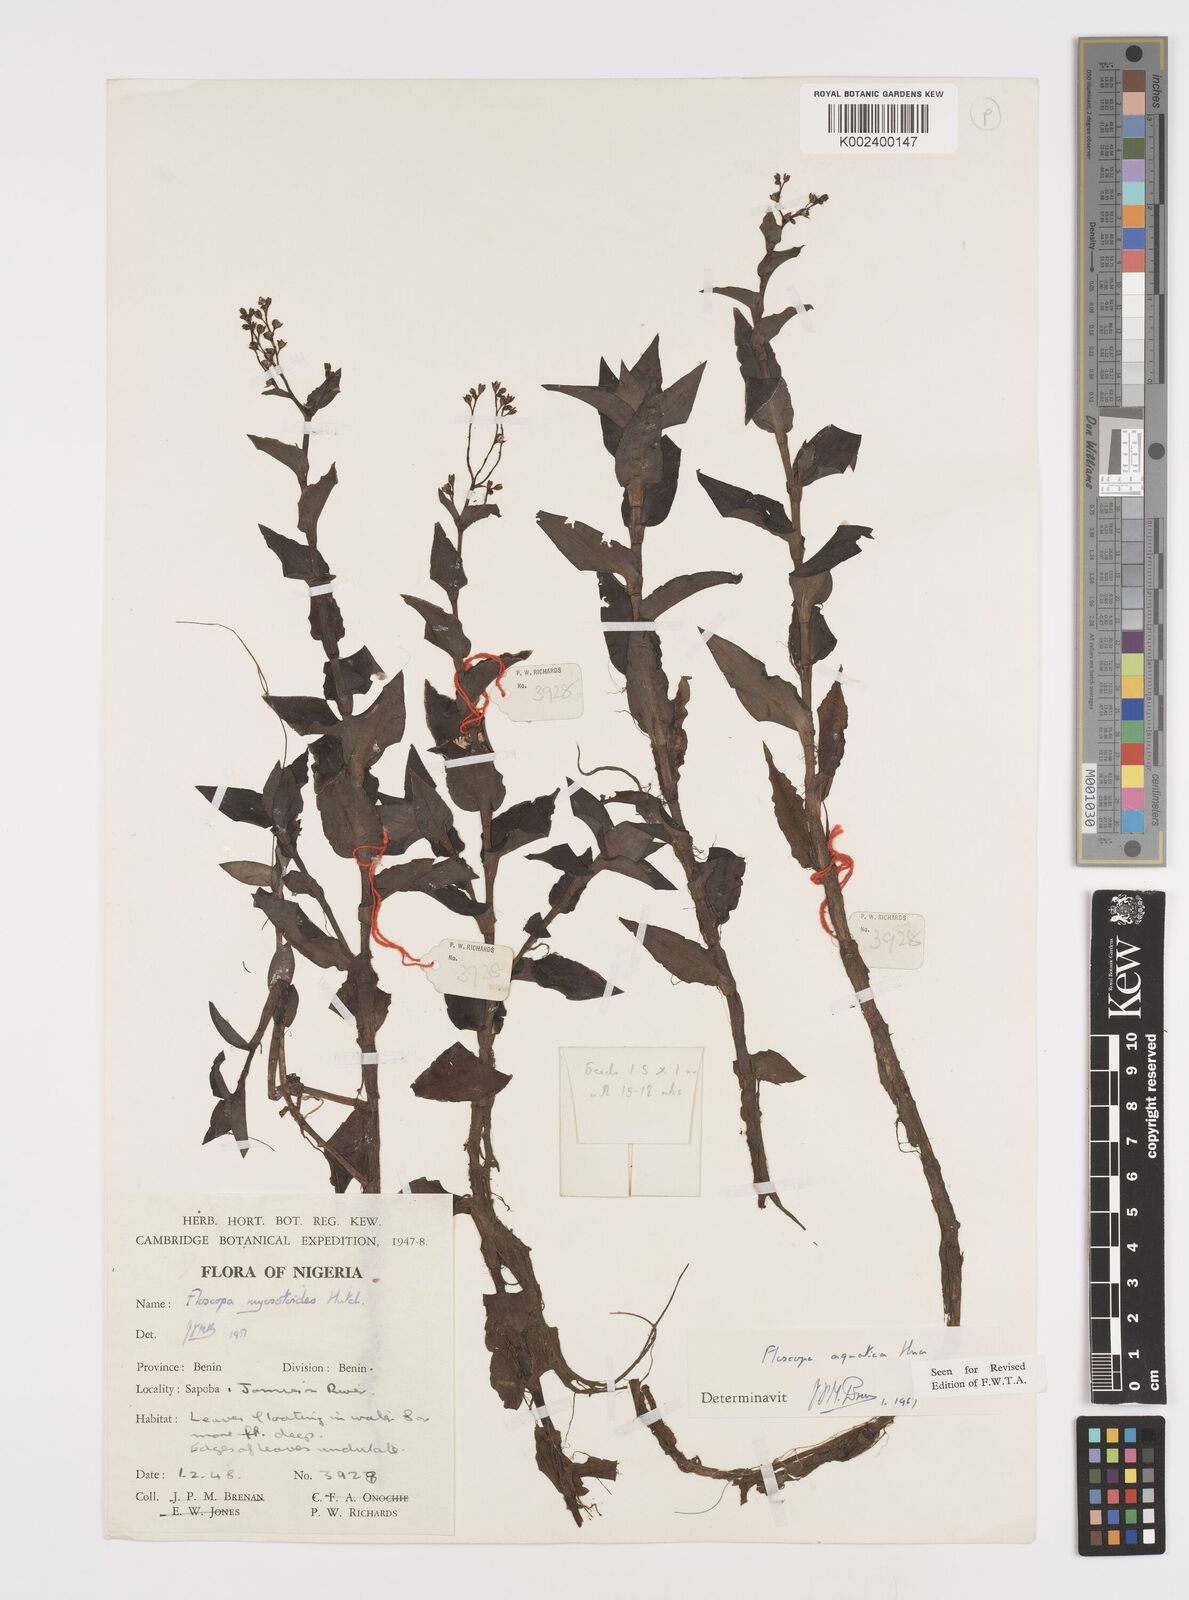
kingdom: Plantae
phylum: Tracheophyta
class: Liliopsida
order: Commelinales
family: Commelinaceae
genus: Floscopa
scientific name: Floscopa aquatica
